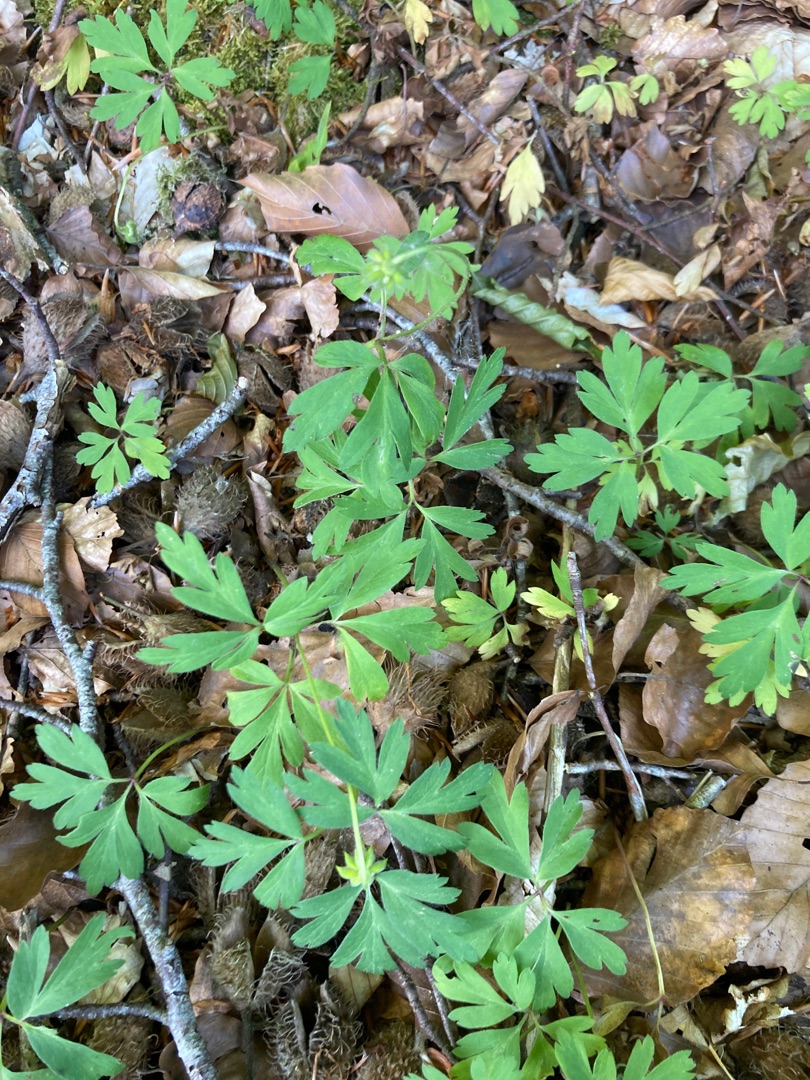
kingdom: Plantae
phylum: Tracheophyta
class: Magnoliopsida
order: Ranunculales
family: Ranunculaceae
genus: Anemone
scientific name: Anemone nemorosa
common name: Hvid anemone
